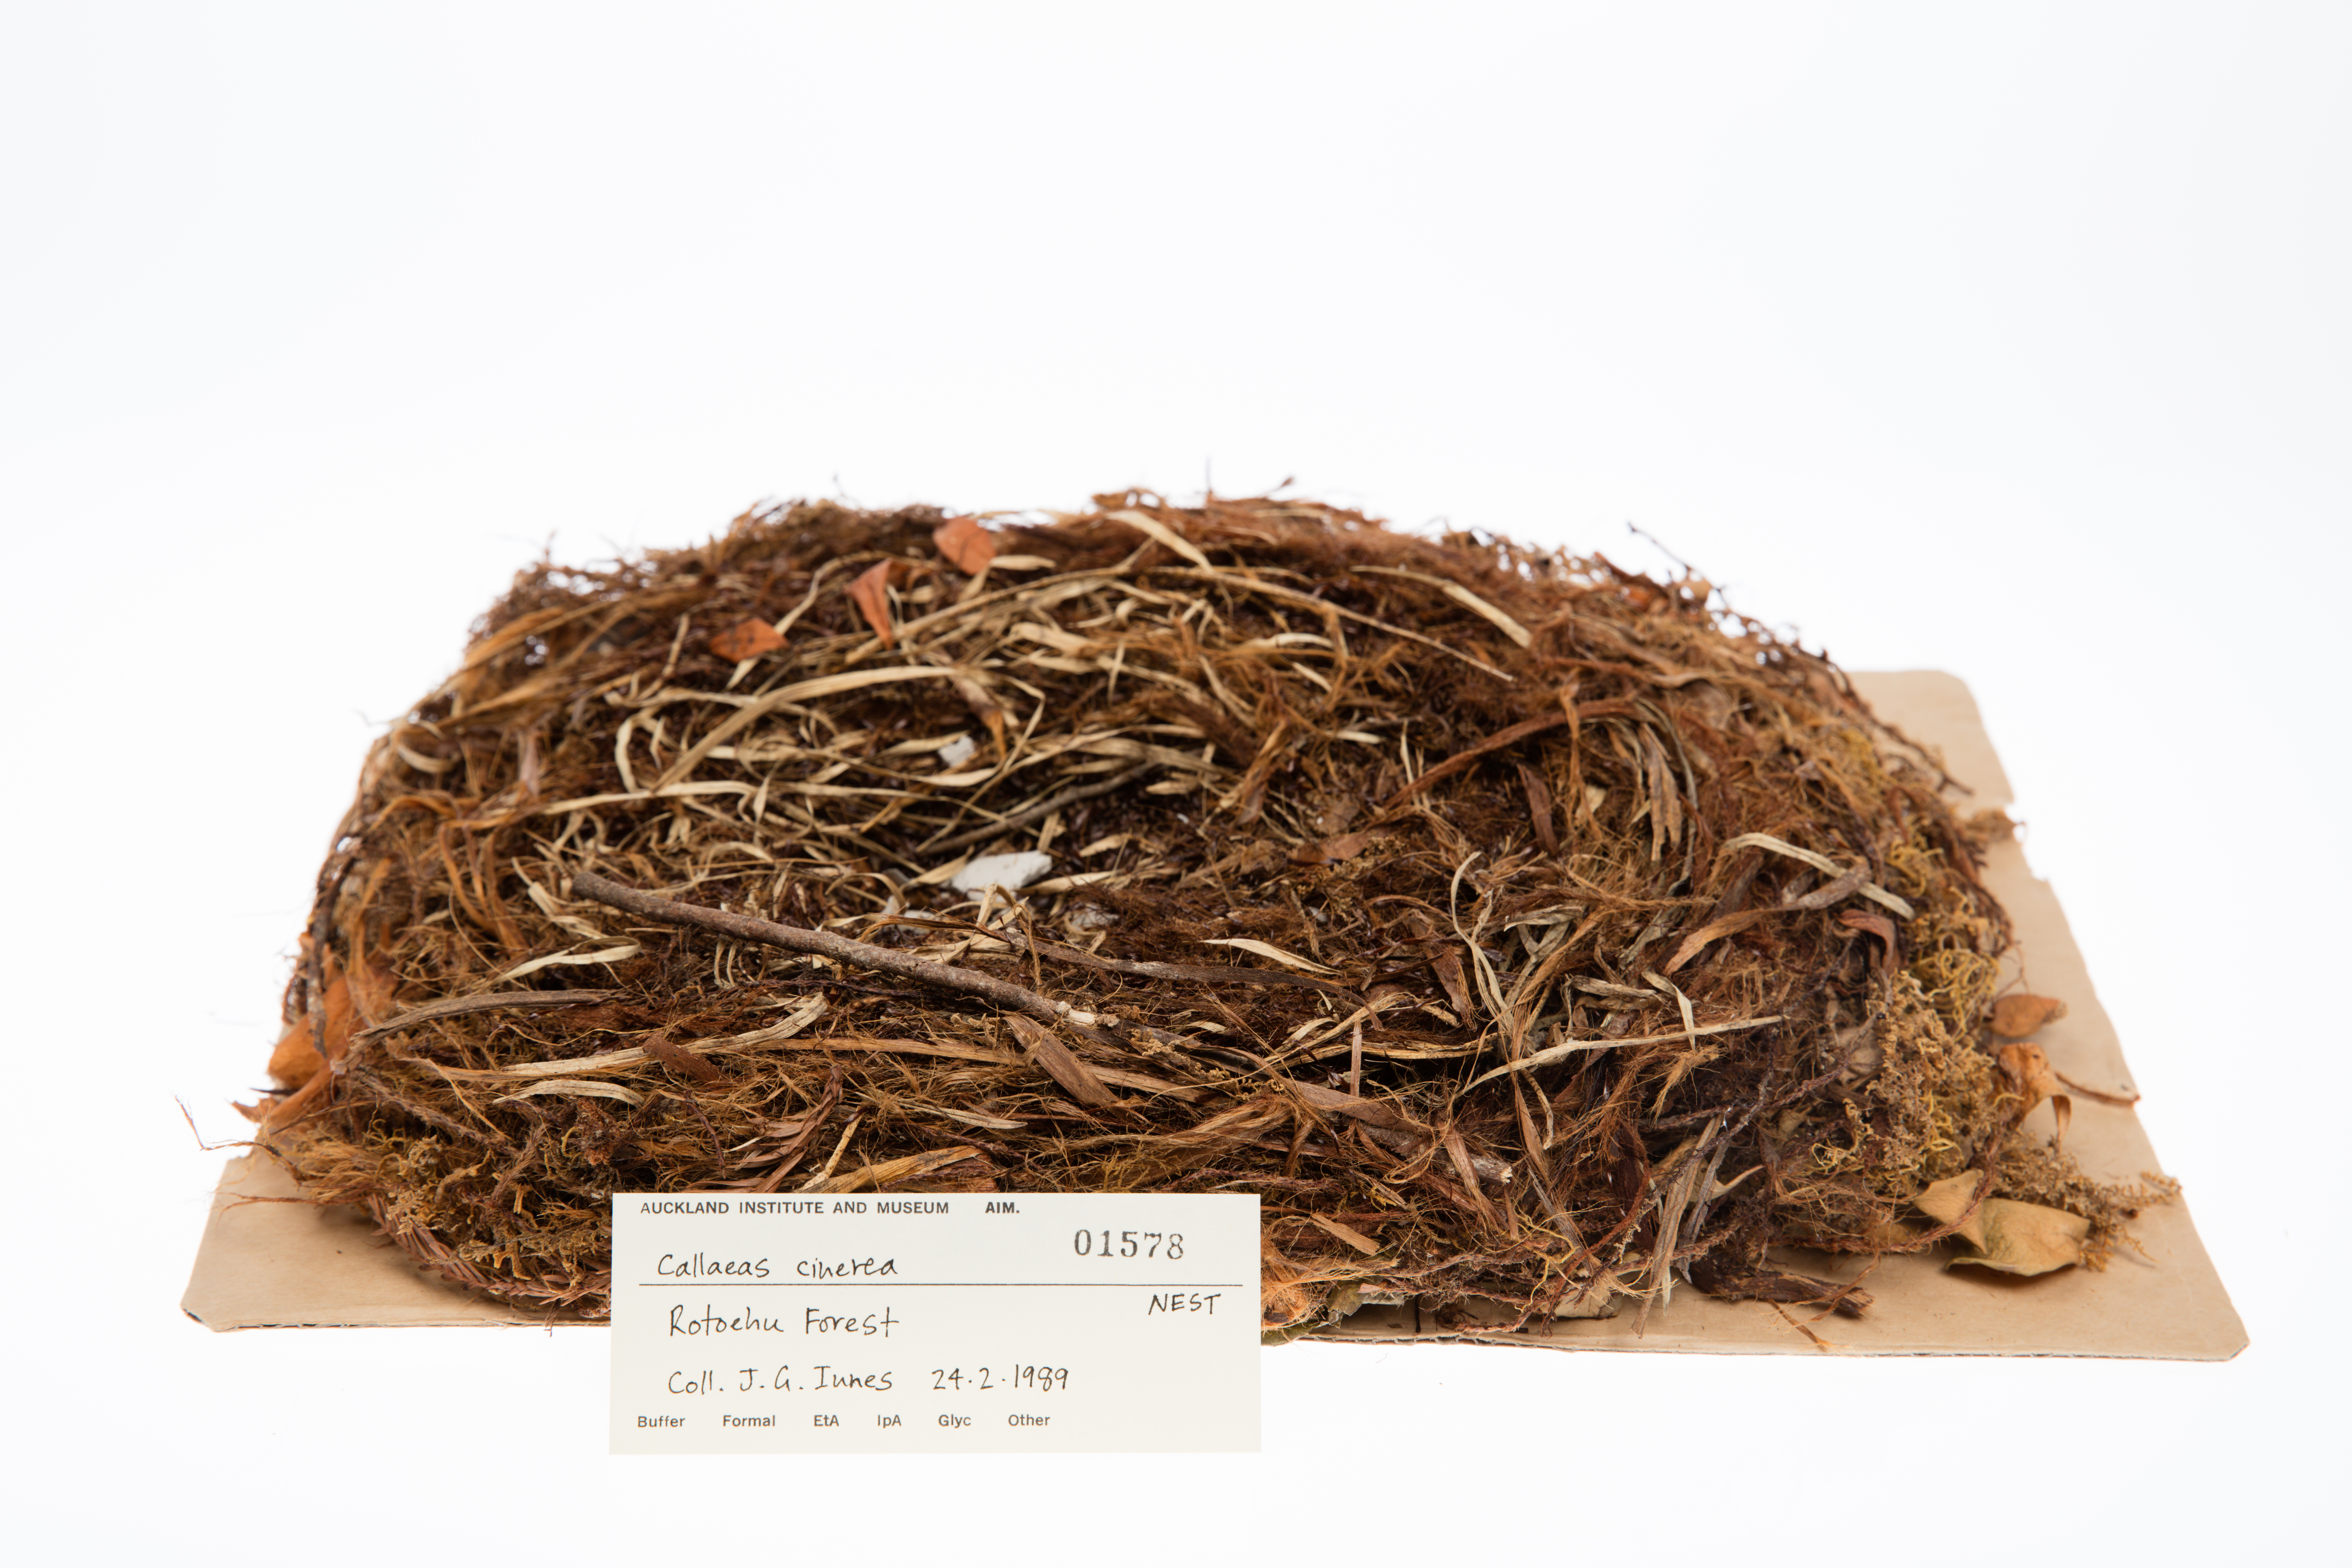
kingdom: Animalia
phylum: Chordata
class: Aves
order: Passeriformes
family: Callaeatidae
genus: Callaeas
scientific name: Callaeas cinereus
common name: South island kokako
